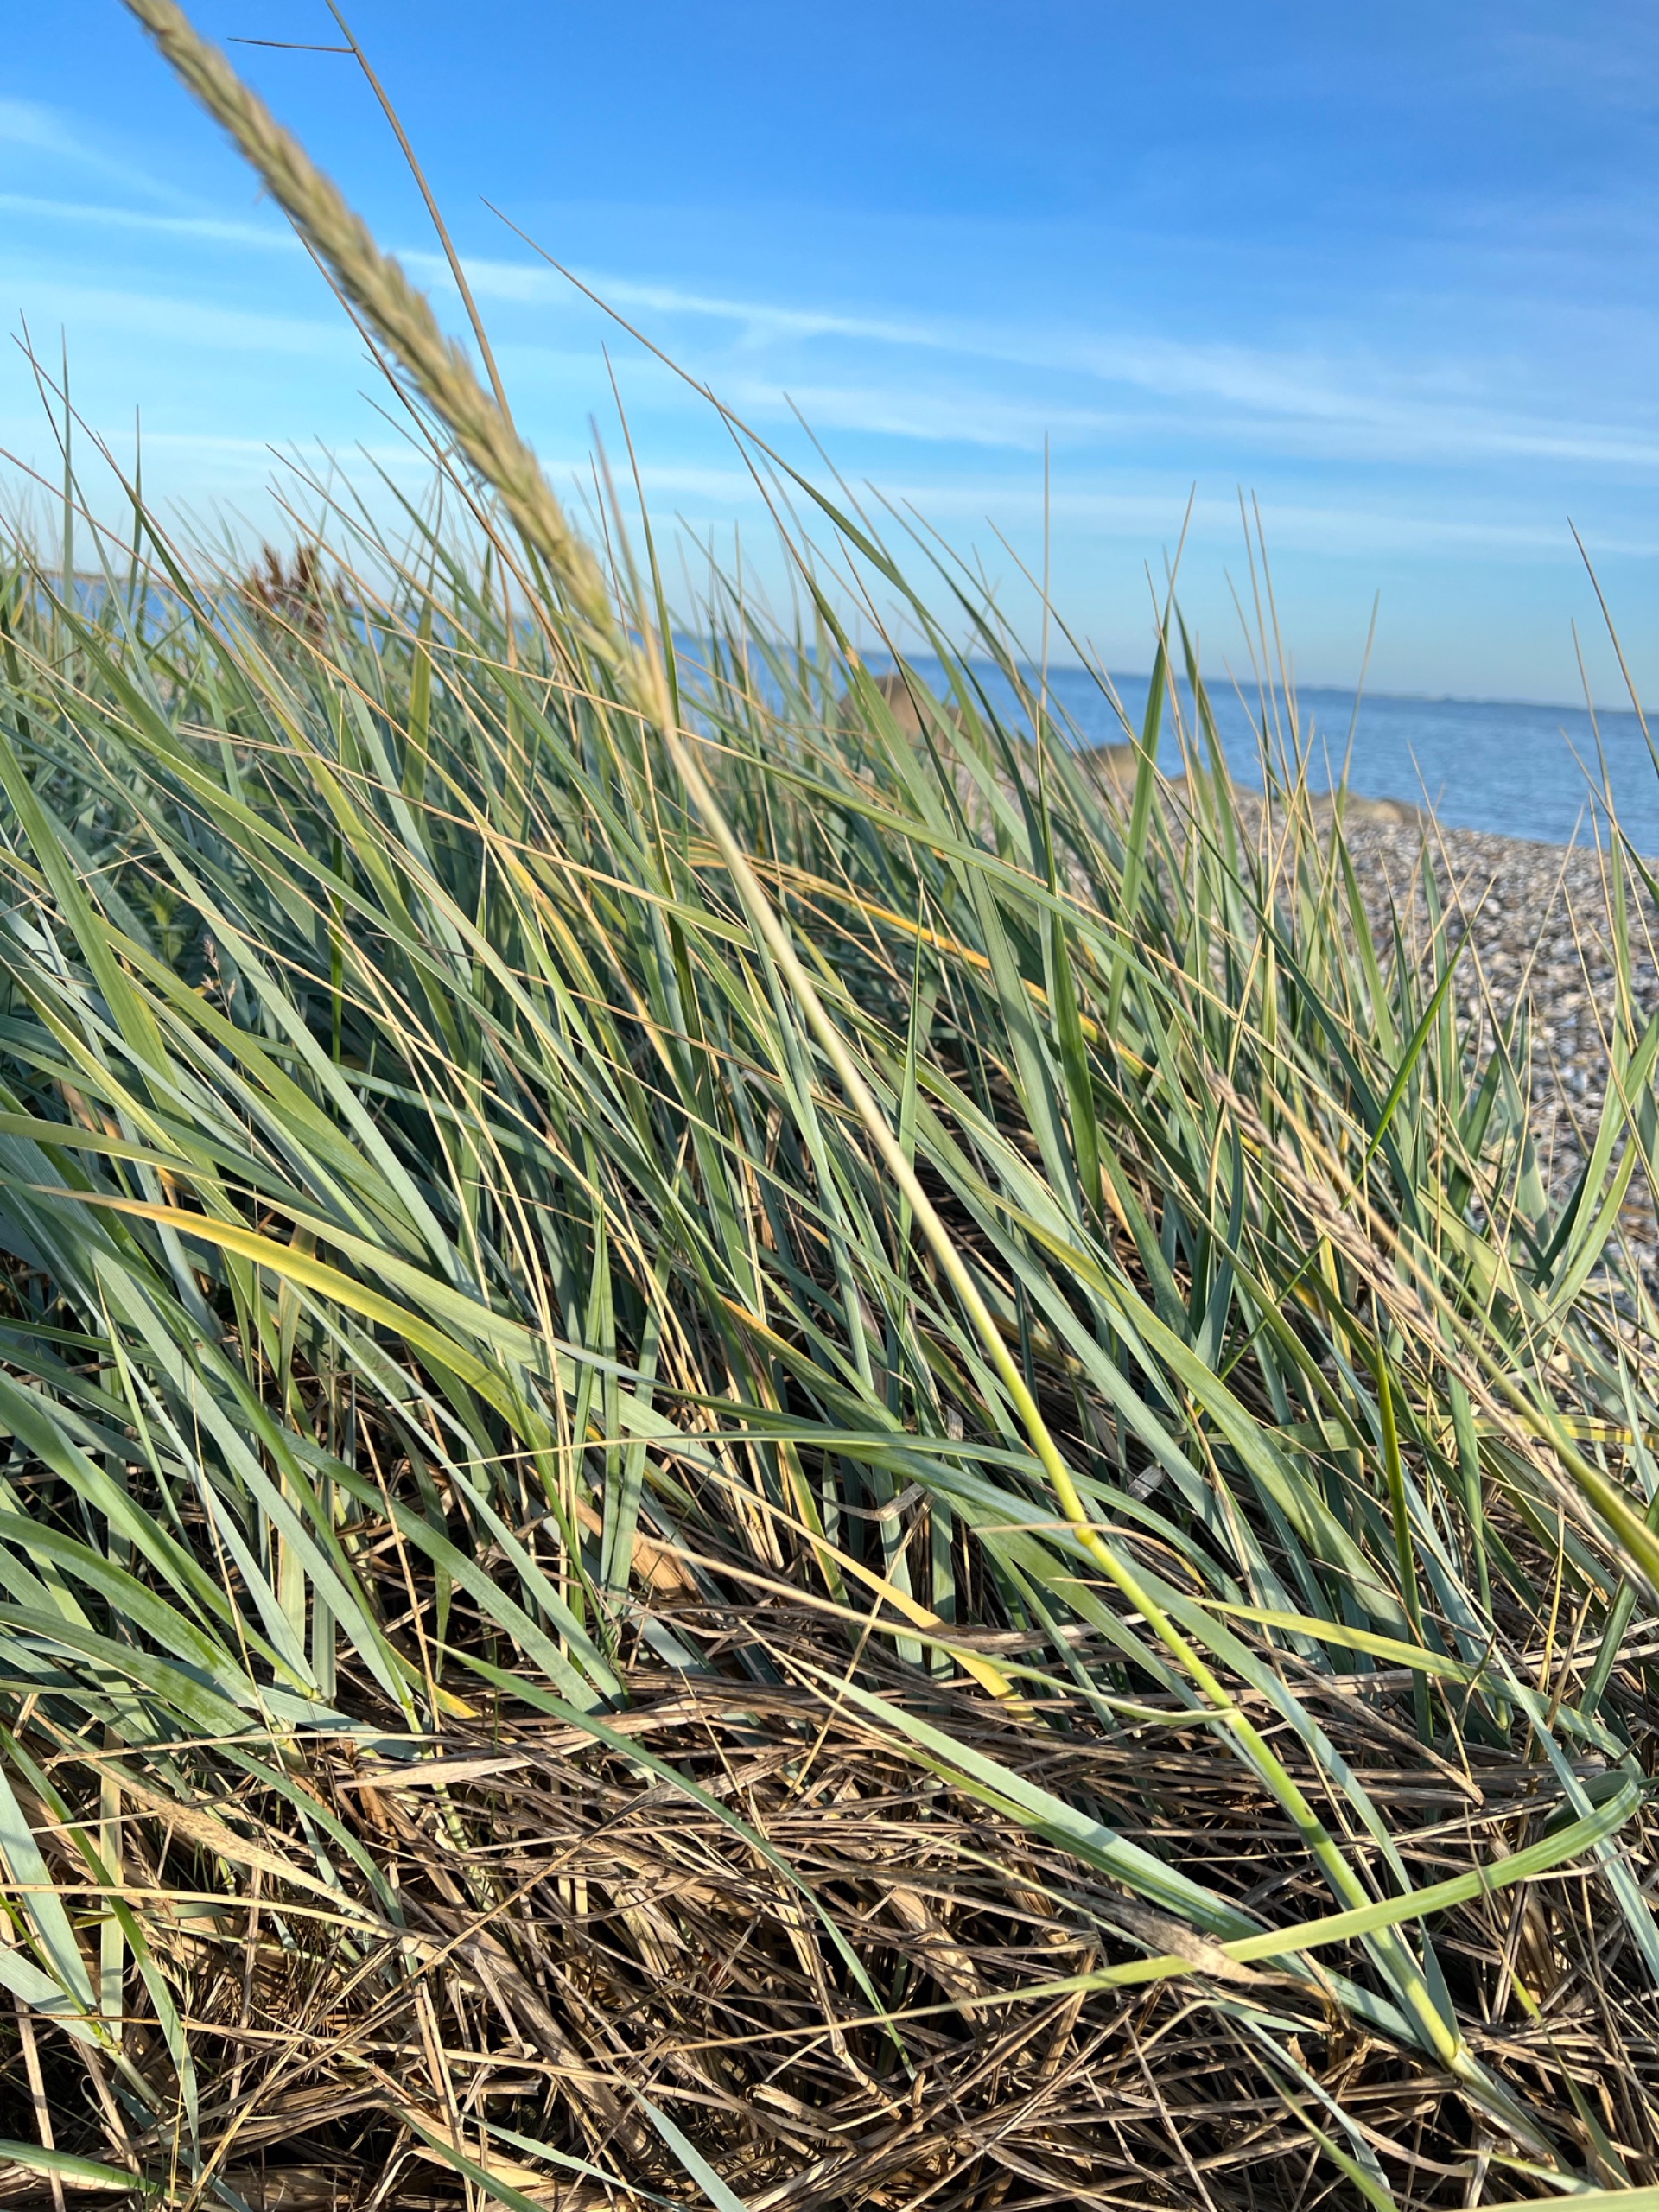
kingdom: Plantae
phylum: Tracheophyta
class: Liliopsida
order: Poales
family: Poaceae
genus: Leymus
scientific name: Leymus arenarius
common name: Marehalm
